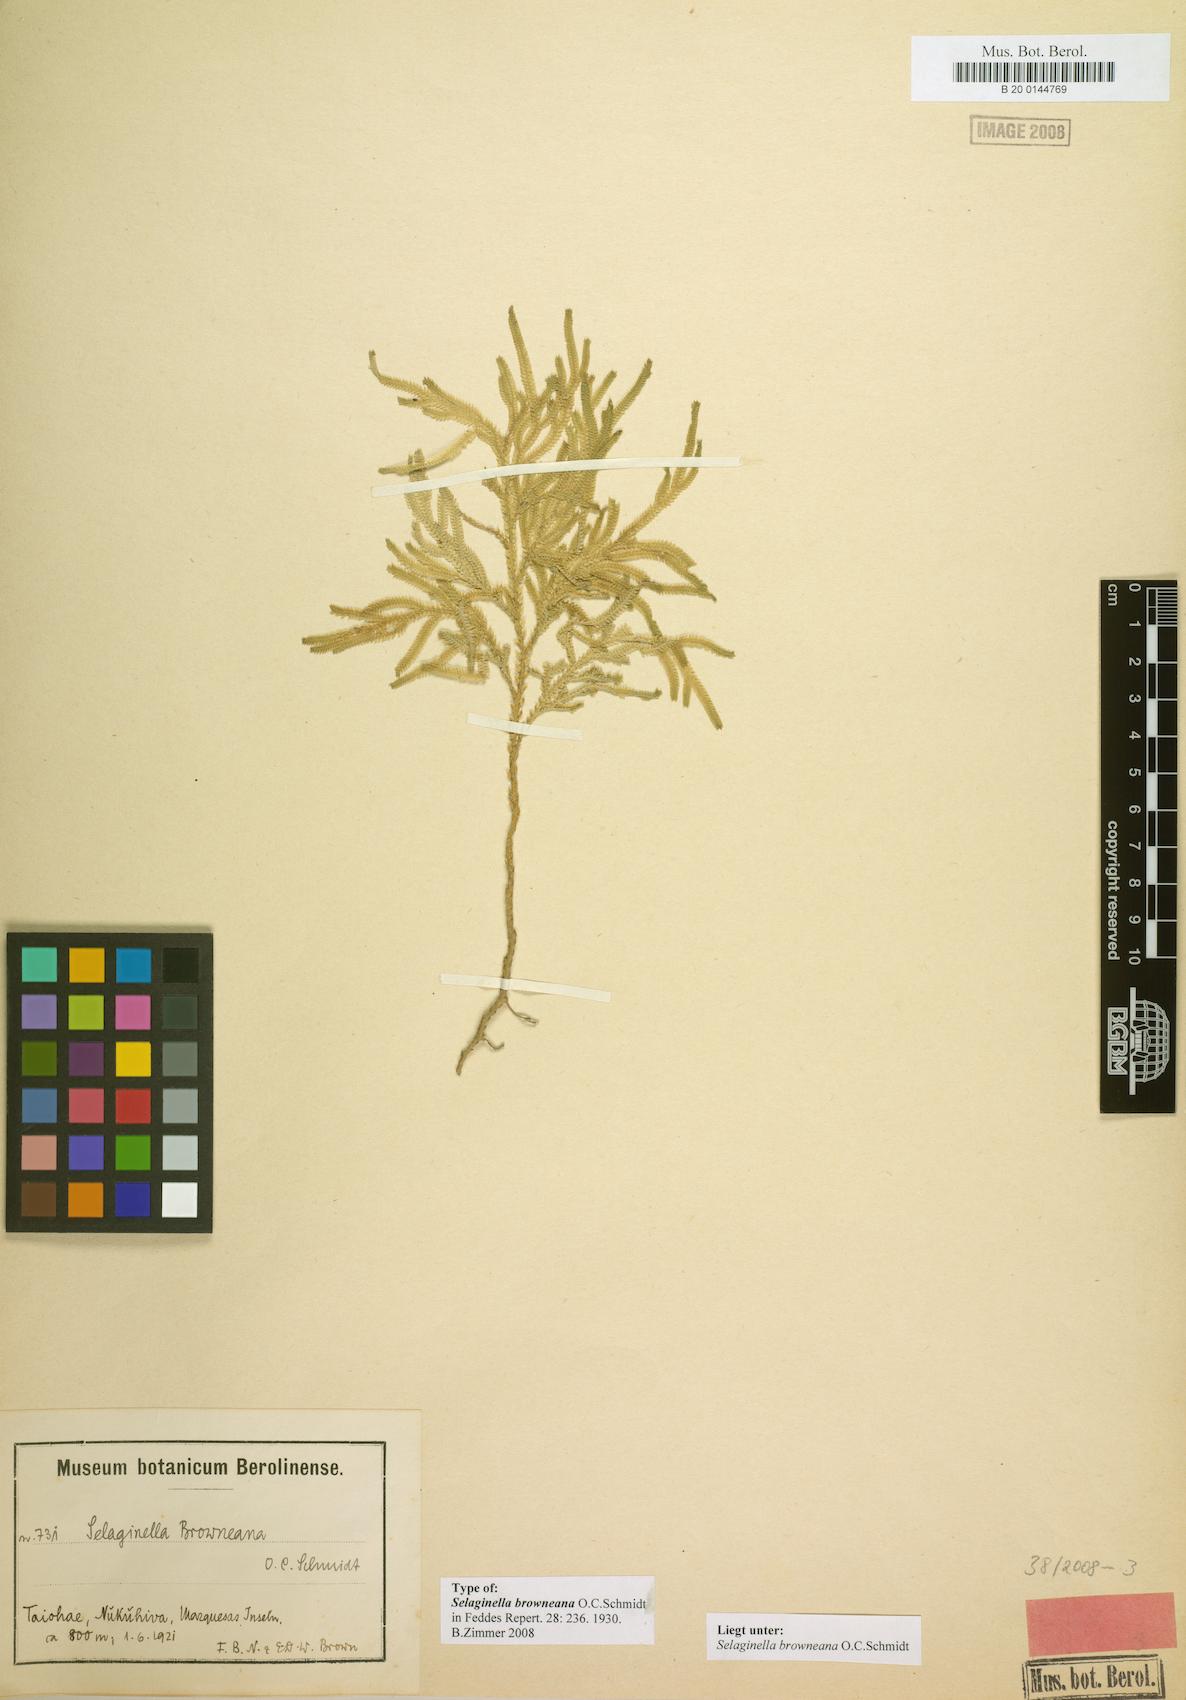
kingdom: Plantae
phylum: Tracheophyta
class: Lycopodiopsida
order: Selaginellales
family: Selaginellaceae
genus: Selaginella
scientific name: Selaginella arbuscula
